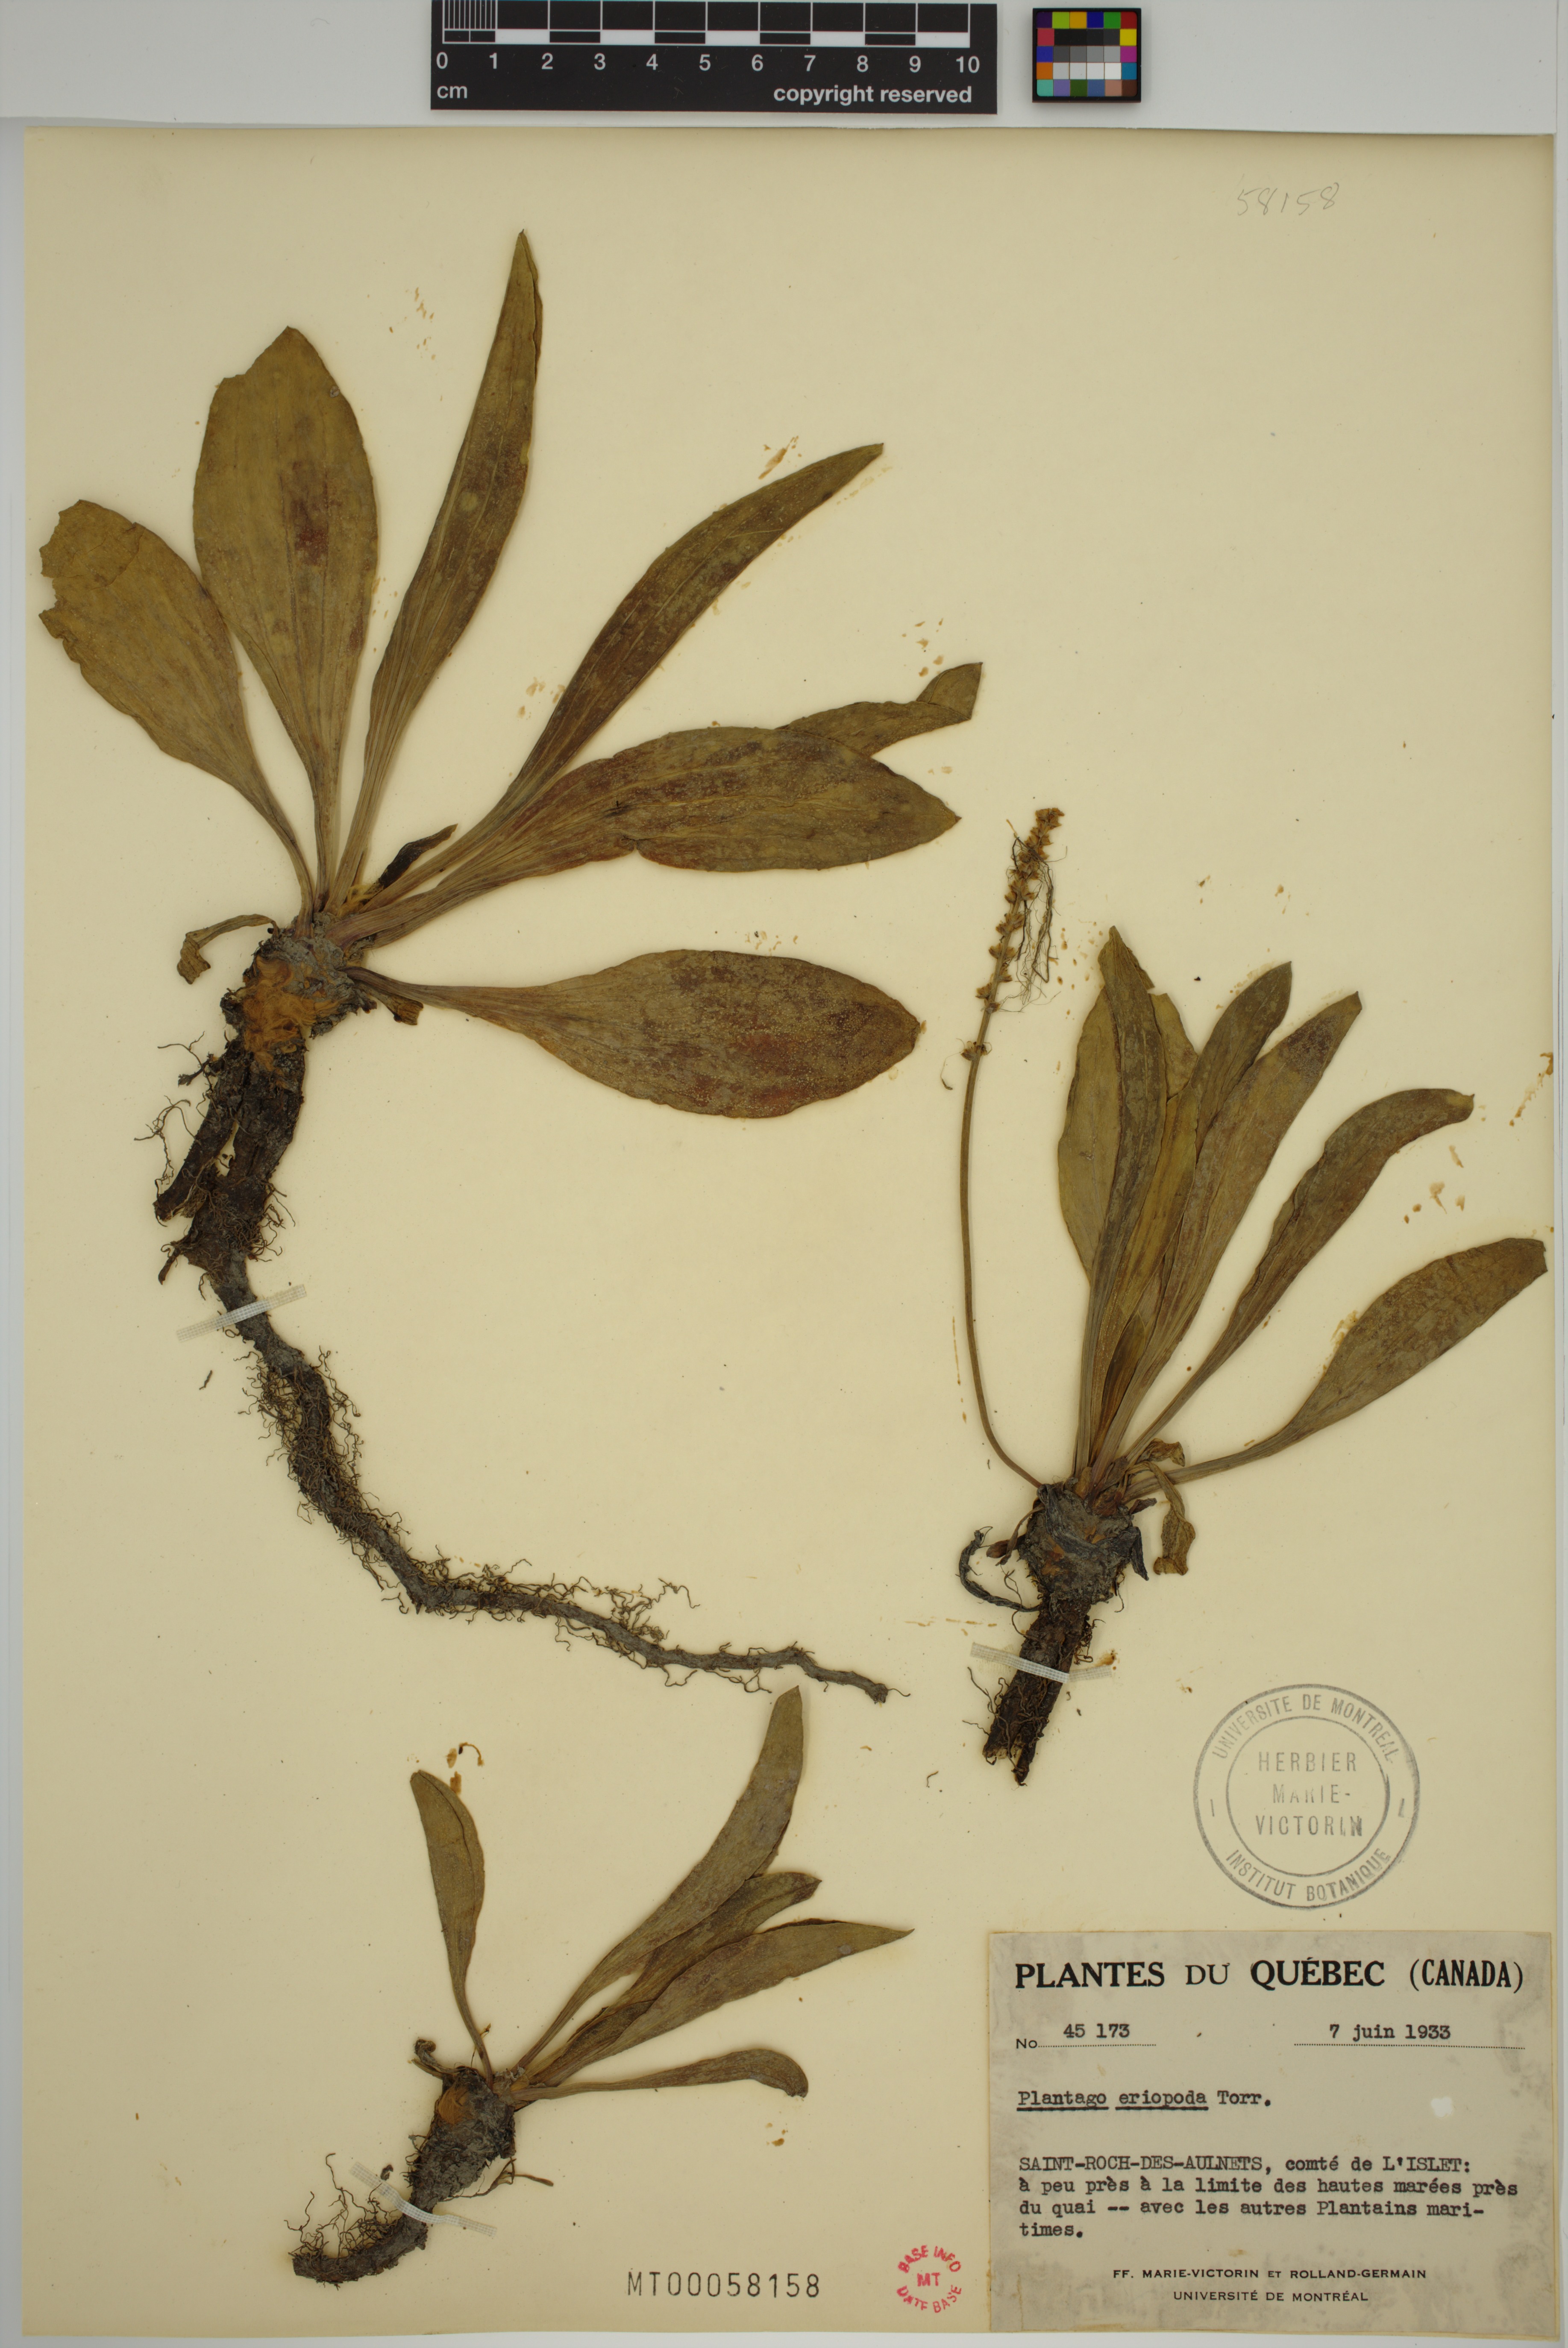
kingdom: Plantae
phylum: Tracheophyta
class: Magnoliopsida
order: Lamiales
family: Plantaginaceae
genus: Plantago
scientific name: Plantago eriopoda
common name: Alkali plantain
